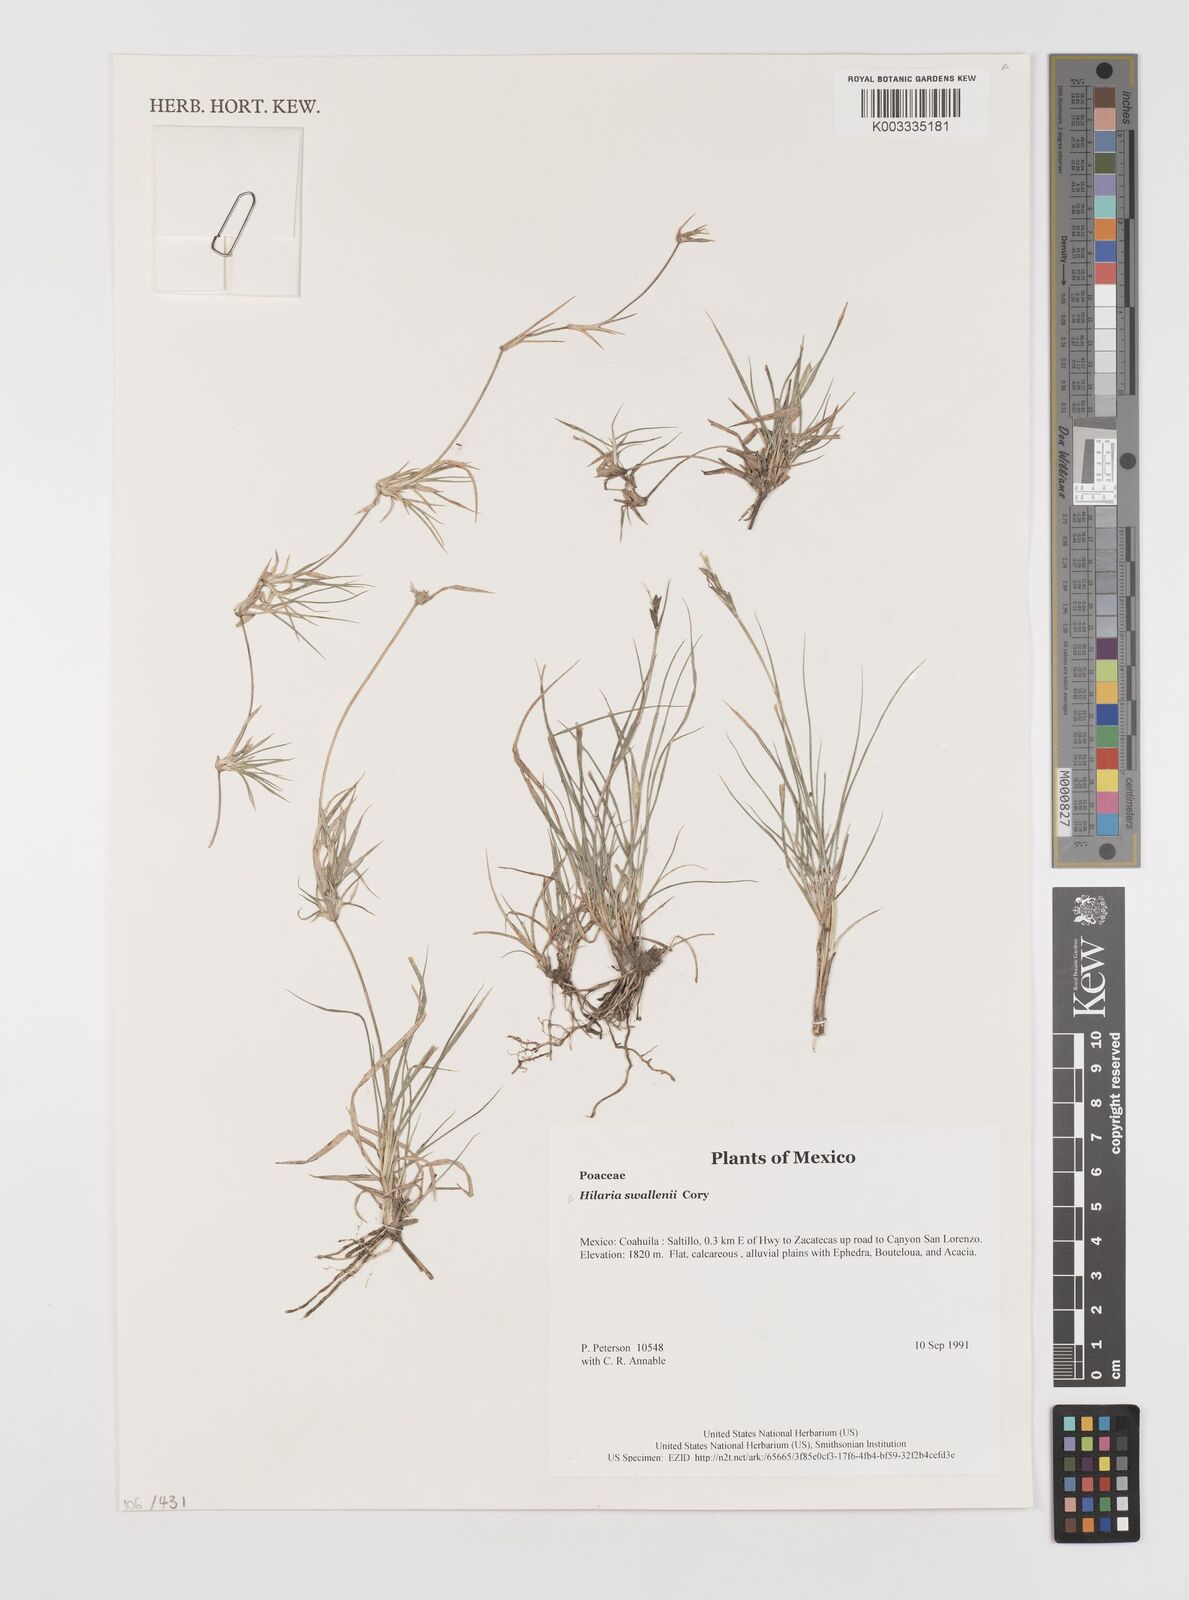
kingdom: Plantae
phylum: Tracheophyta
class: Liliopsida
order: Poales
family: Poaceae
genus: Hilaria
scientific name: Hilaria swallenii
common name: Swallen's curly-mesquite
